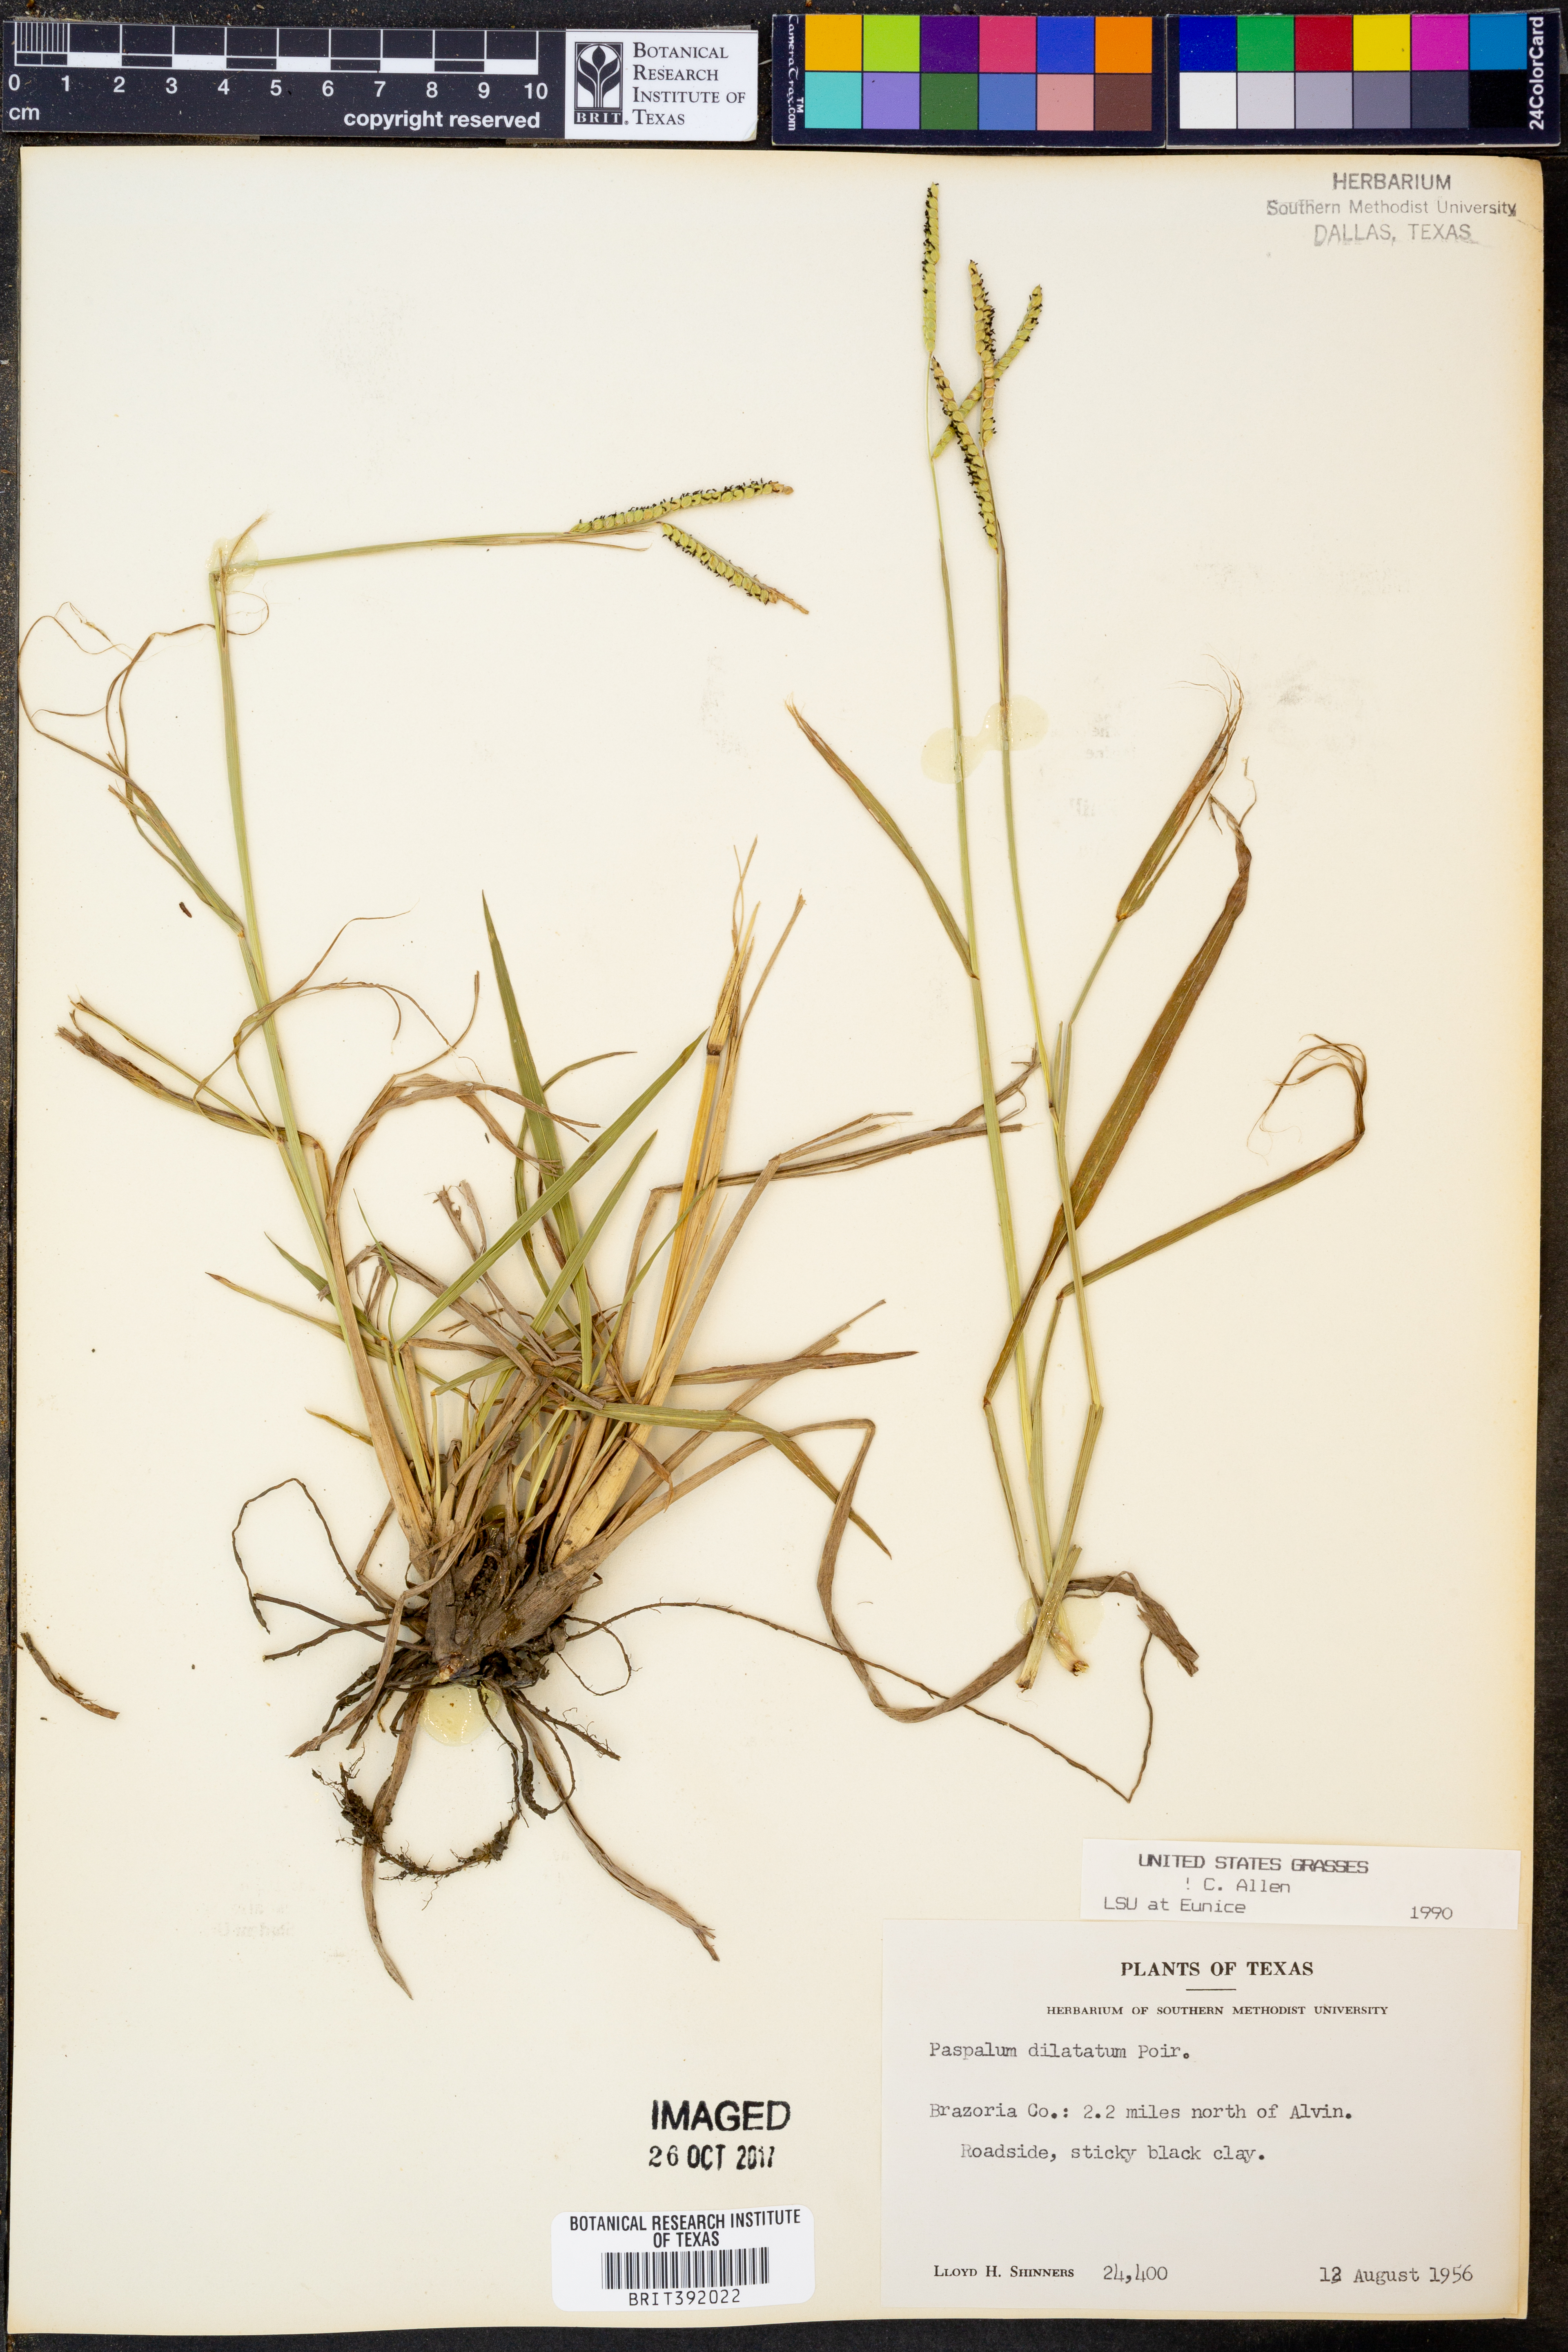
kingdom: Plantae
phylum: Tracheophyta
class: Liliopsida
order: Poales
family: Poaceae
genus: Paspalum
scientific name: Paspalum dilatatum
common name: Dallisgrass
